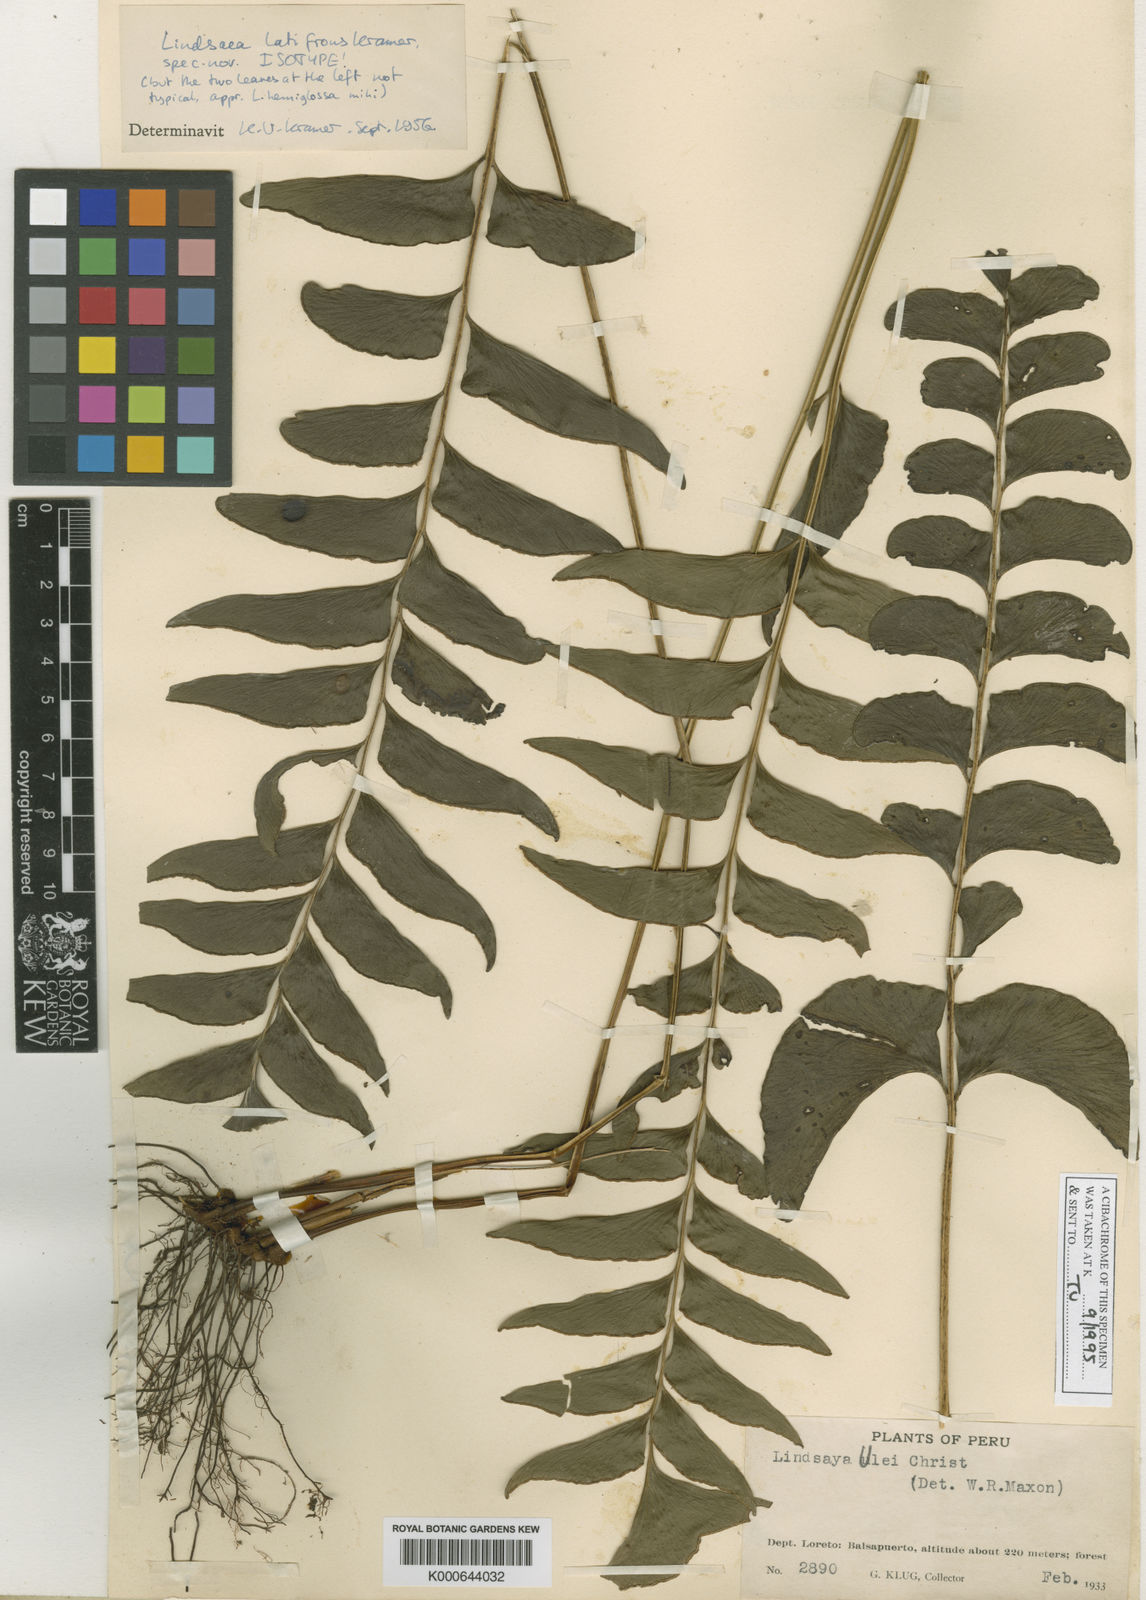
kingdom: Plantae
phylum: Tracheophyta
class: Polypodiopsida
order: Polypodiales
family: Lindsaeaceae
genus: Lindsaea
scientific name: Lindsaea latifrons
